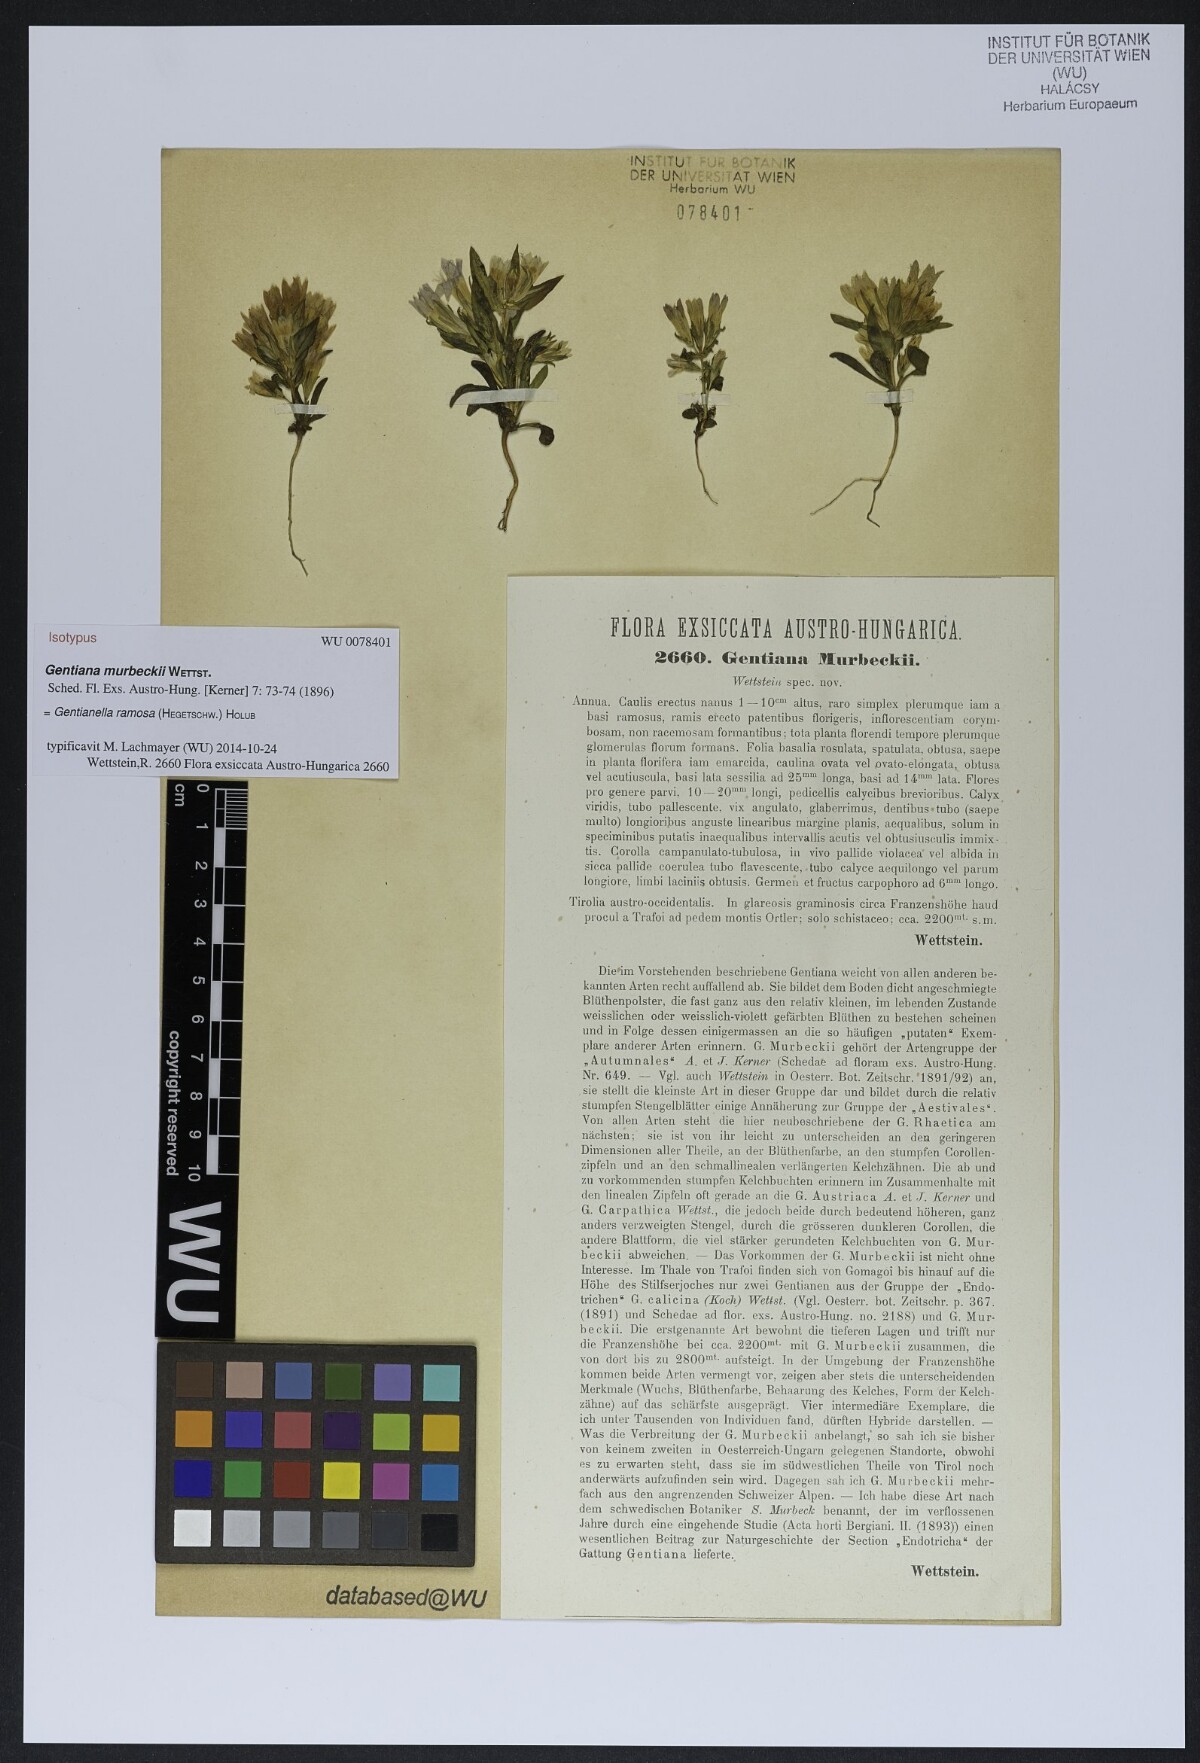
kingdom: Plantae
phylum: Tracheophyta
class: Magnoliopsida
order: Gentianales
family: Gentianaceae
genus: Gentianella
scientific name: Gentianella ramosa
